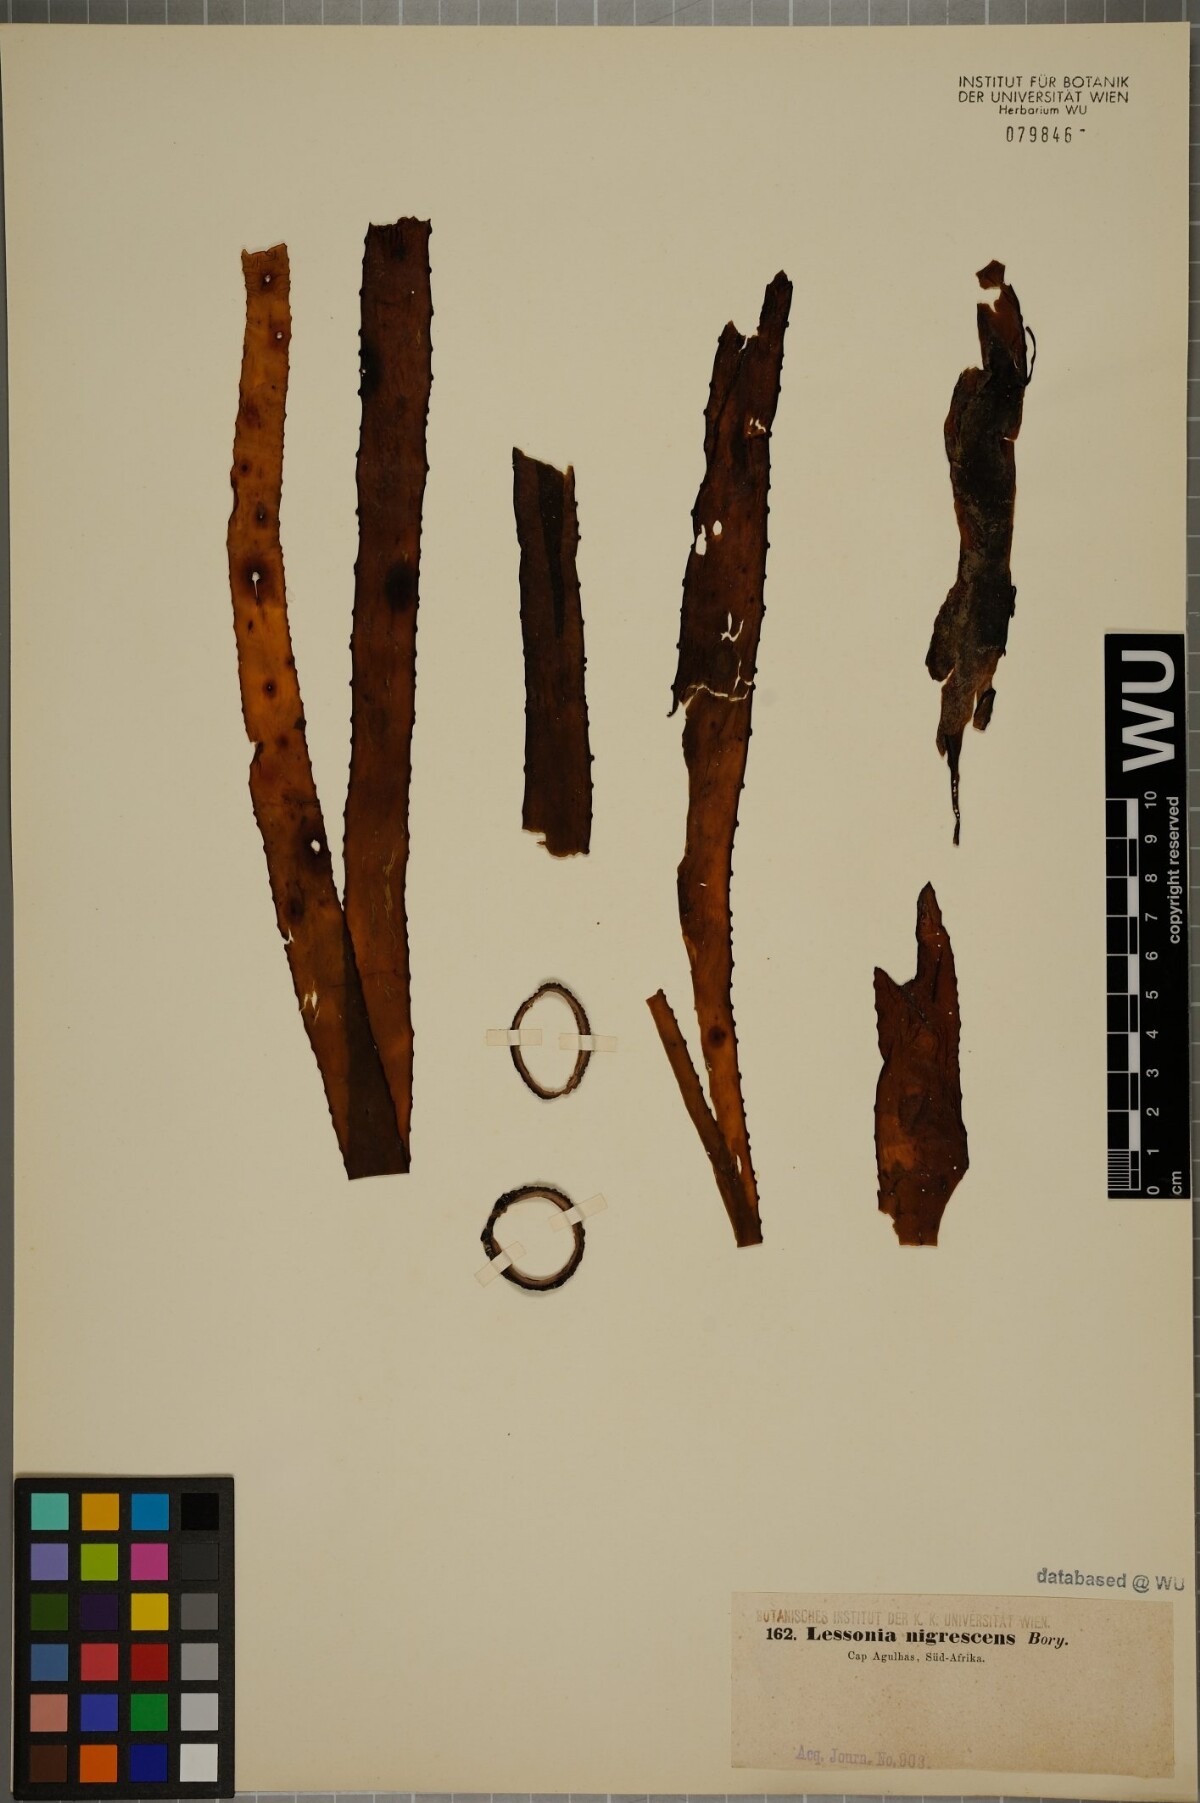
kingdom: Chromista
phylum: Ochrophyta
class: Phaeophyceae
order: Laminariales
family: Lessoniaceae
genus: Lessonia
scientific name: Lessonia nigrescens
